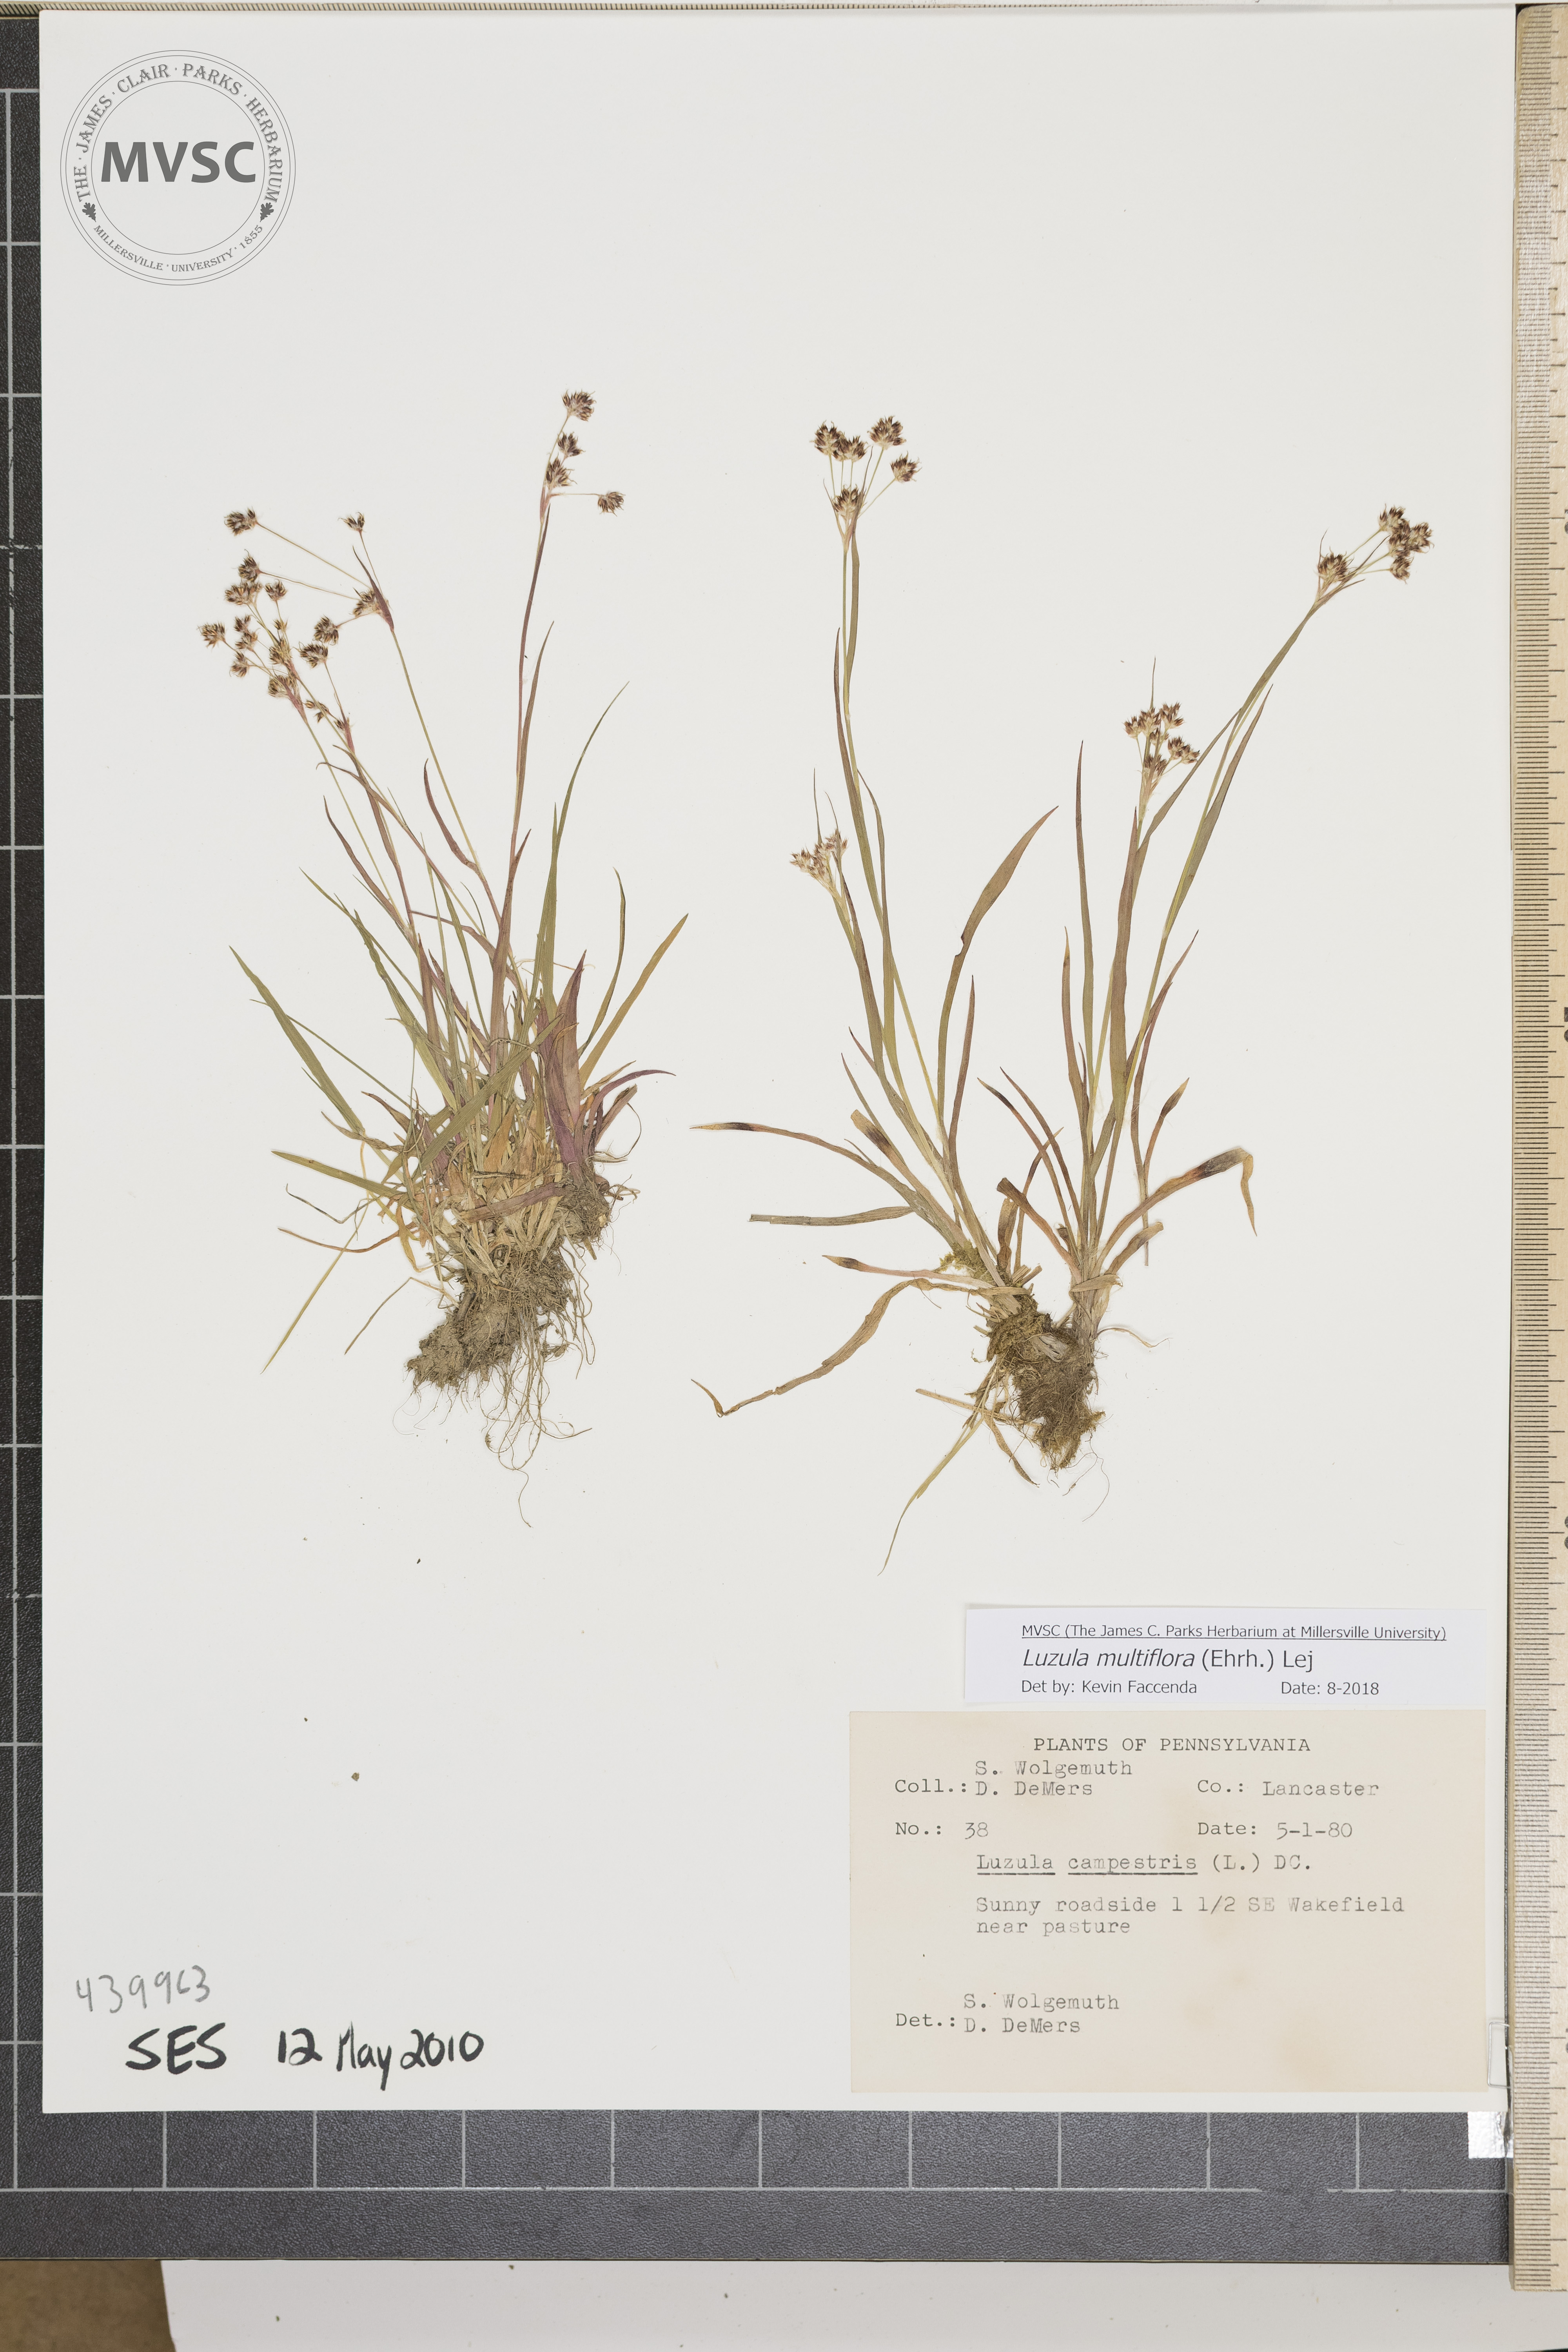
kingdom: Plantae
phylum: Tracheophyta
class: Liliopsida
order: Poales
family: Juncaceae
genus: Luzula
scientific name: Luzula multiflora
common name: Heath wood-rush
